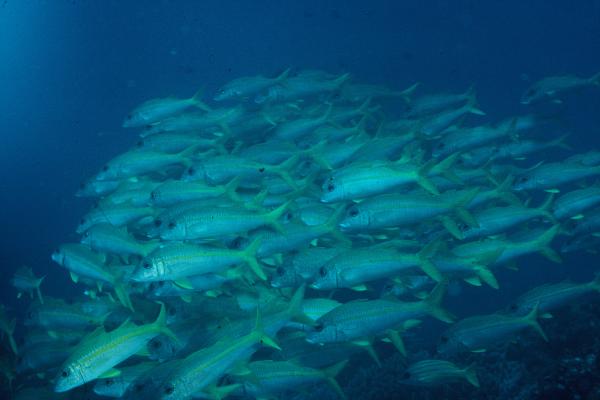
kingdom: Animalia
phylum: Chordata
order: Perciformes
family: Mullidae
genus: Mulloidichthys
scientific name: Mulloidichthys vanicolensis
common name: Yellowfin goatfish
